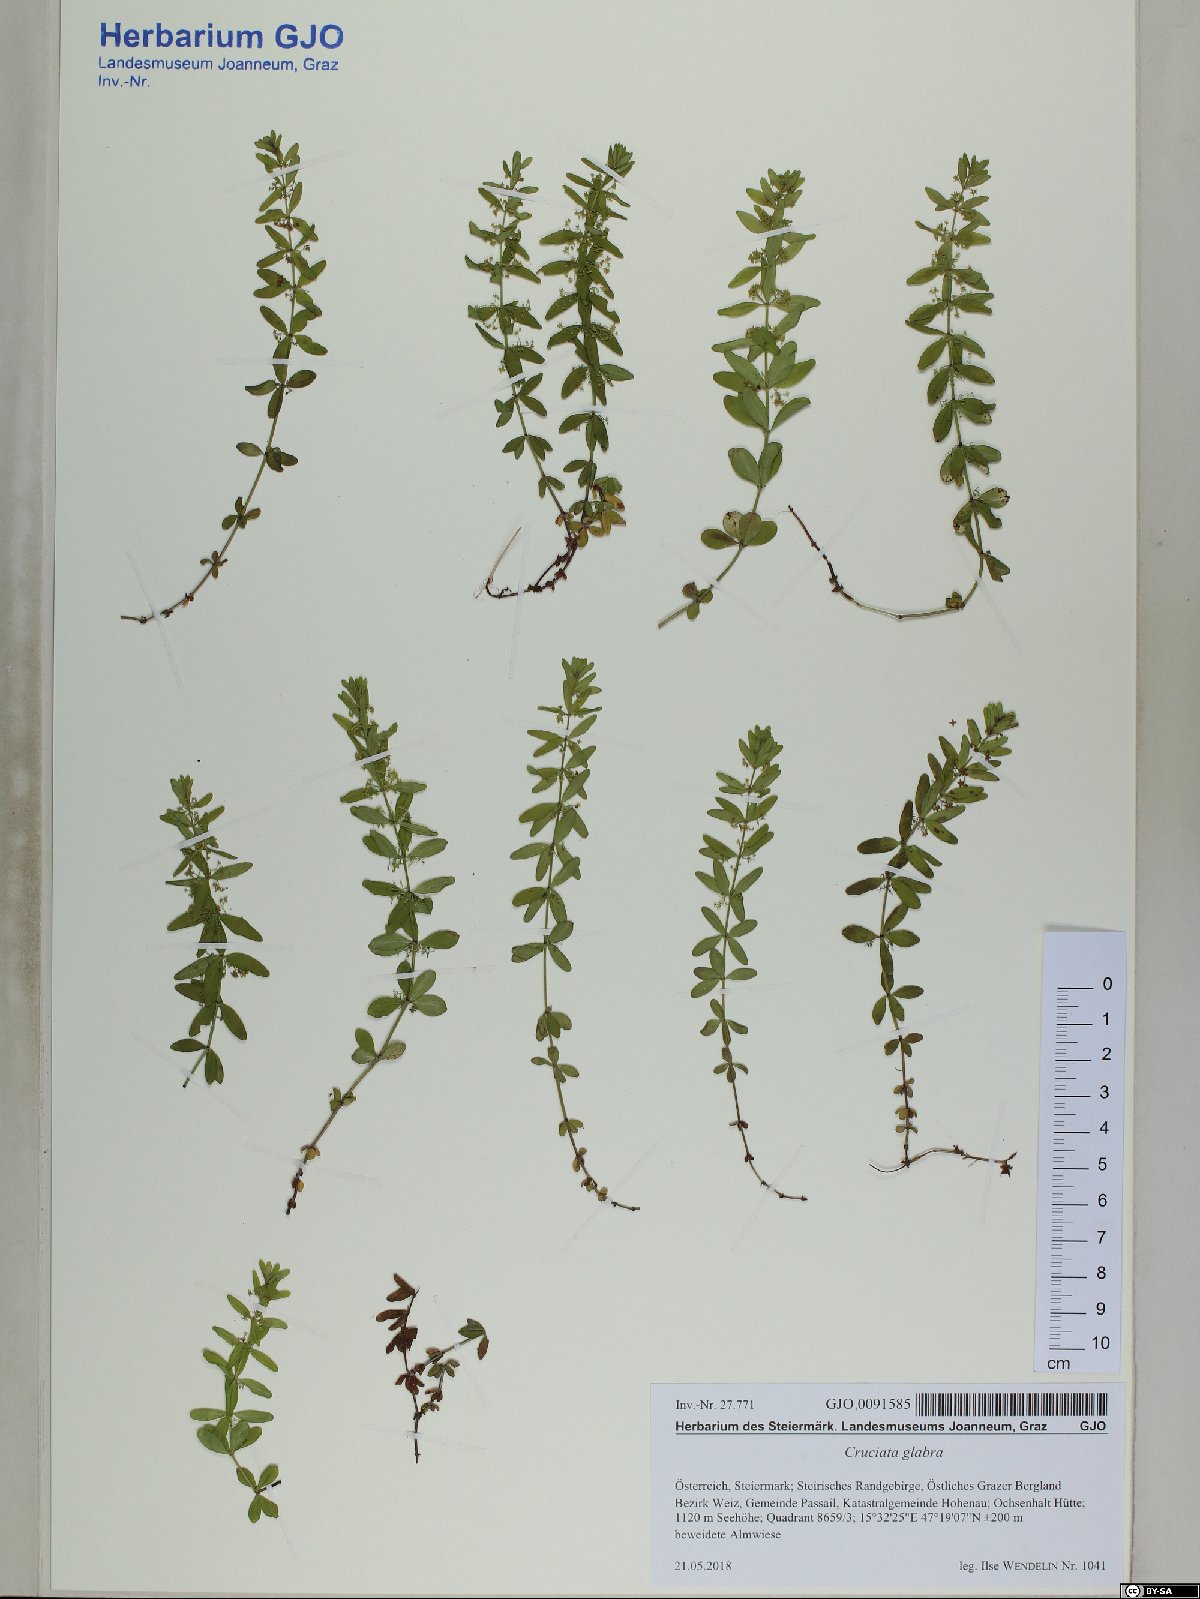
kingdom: Plantae
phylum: Tracheophyta
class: Magnoliopsida
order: Gentianales
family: Rubiaceae
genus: Cruciata
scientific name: Cruciata glabra
